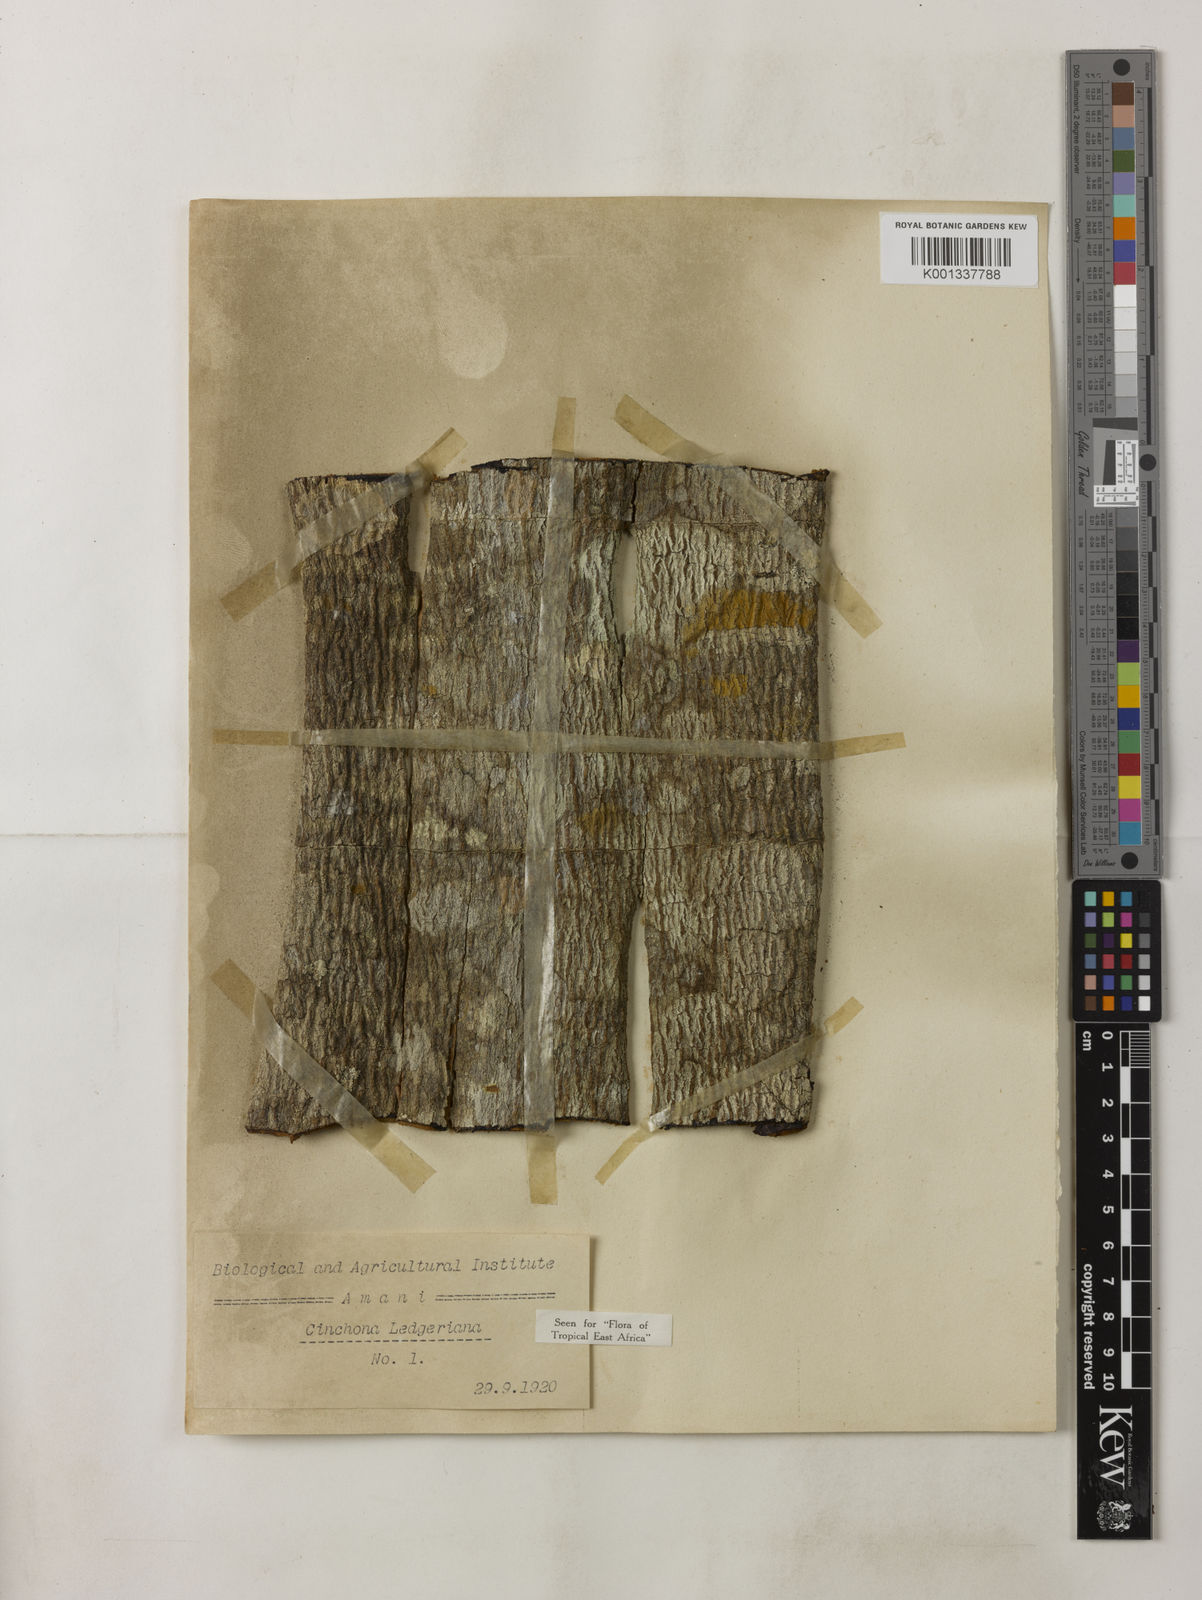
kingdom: Plantae
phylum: Tracheophyta
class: Magnoliopsida
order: Gentianales
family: Rubiaceae
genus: Cinchona
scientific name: Cinchona calisaya
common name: Ledgerbark
